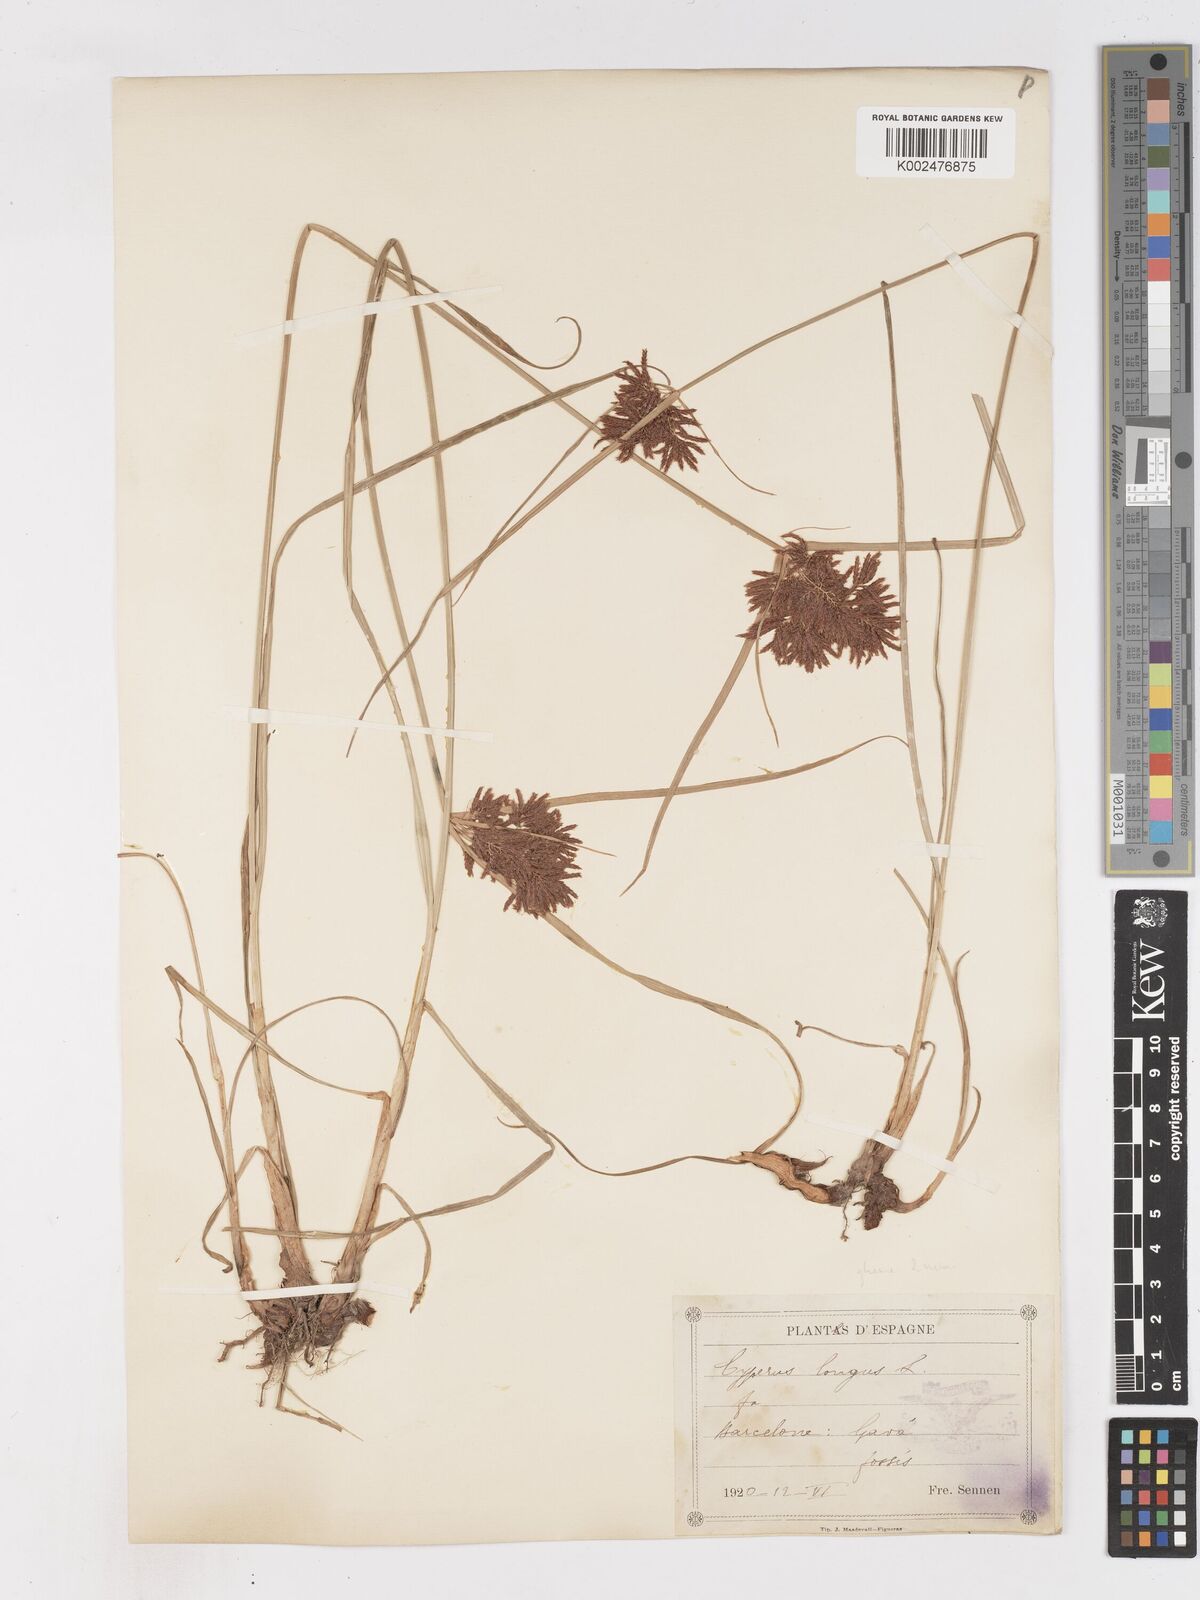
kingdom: Plantae
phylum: Tracheophyta
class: Liliopsida
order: Poales
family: Cyperaceae
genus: Cyperus
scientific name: Cyperus longus
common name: Galingale
